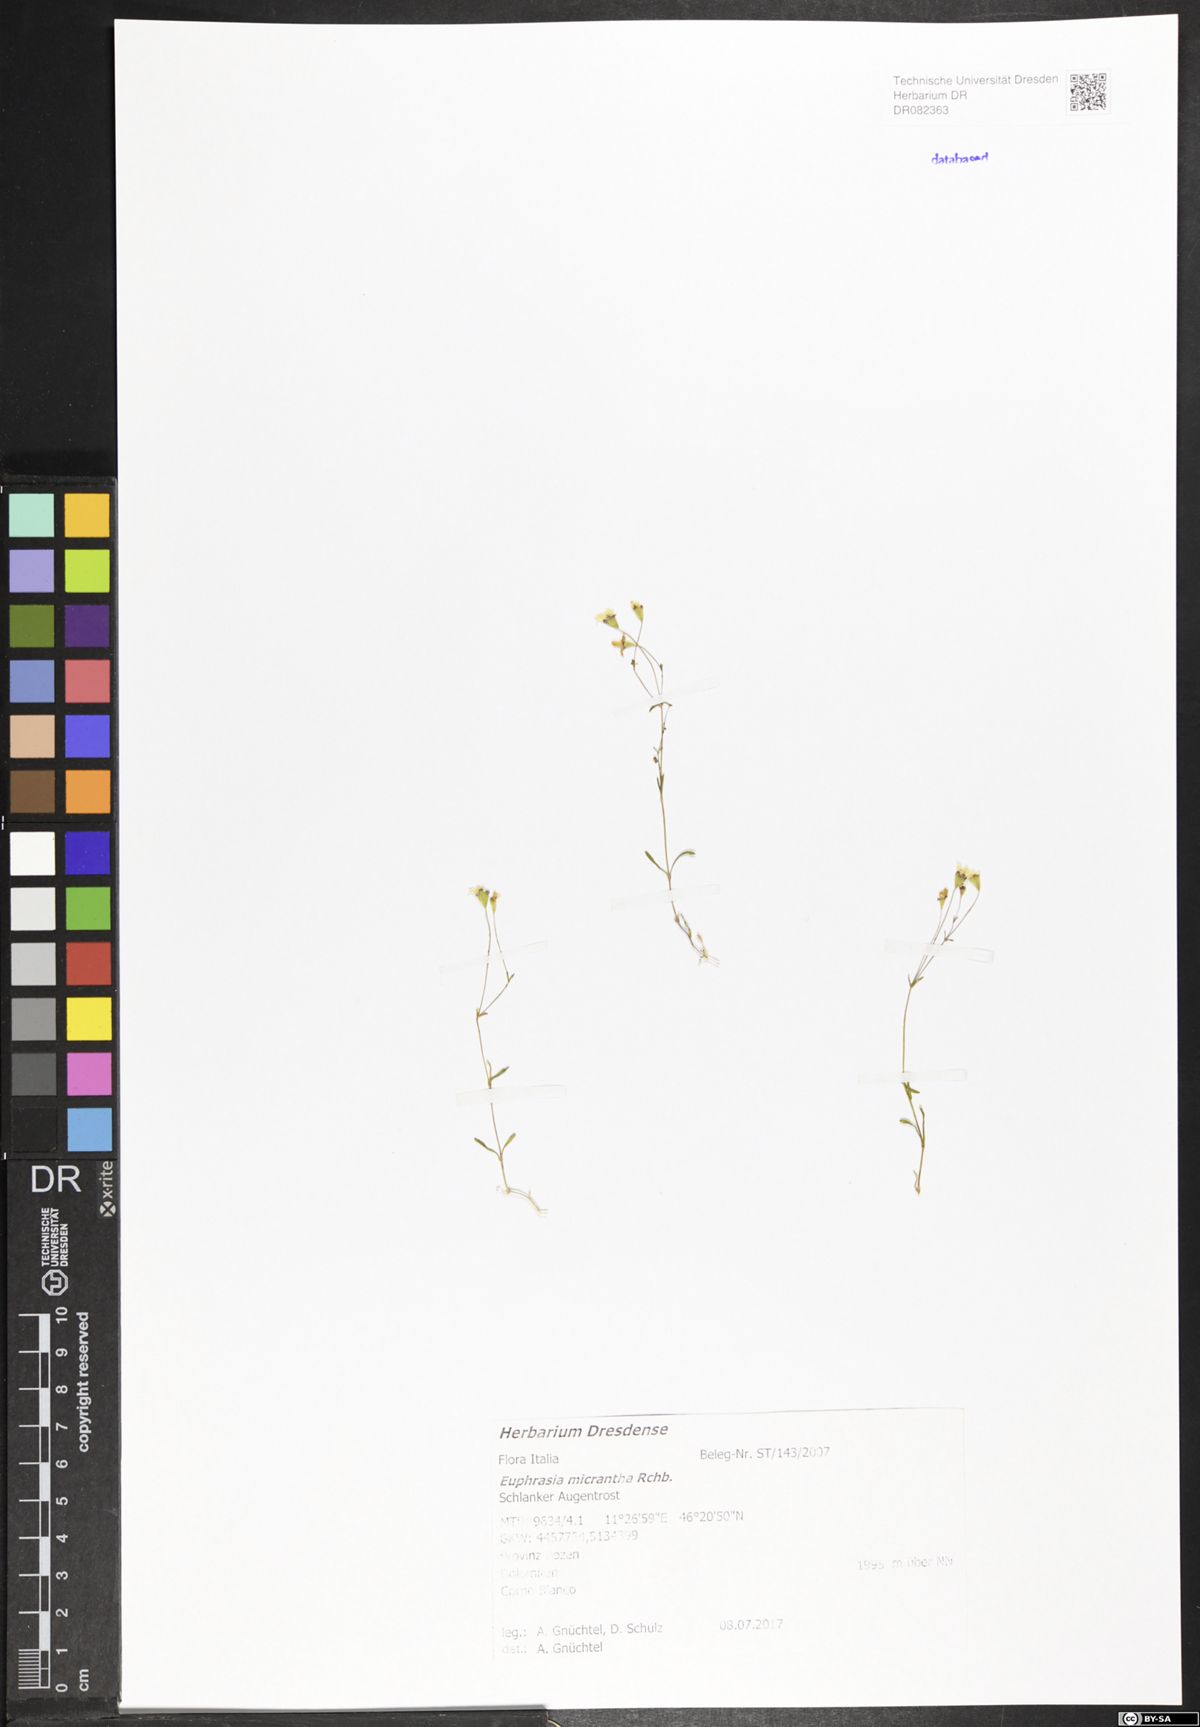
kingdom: Plantae
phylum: Tracheophyta
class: Magnoliopsida
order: Lamiales
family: Orobanchaceae
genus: Euphrasia
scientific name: Euphrasia micrantha
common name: Northern eyebright
